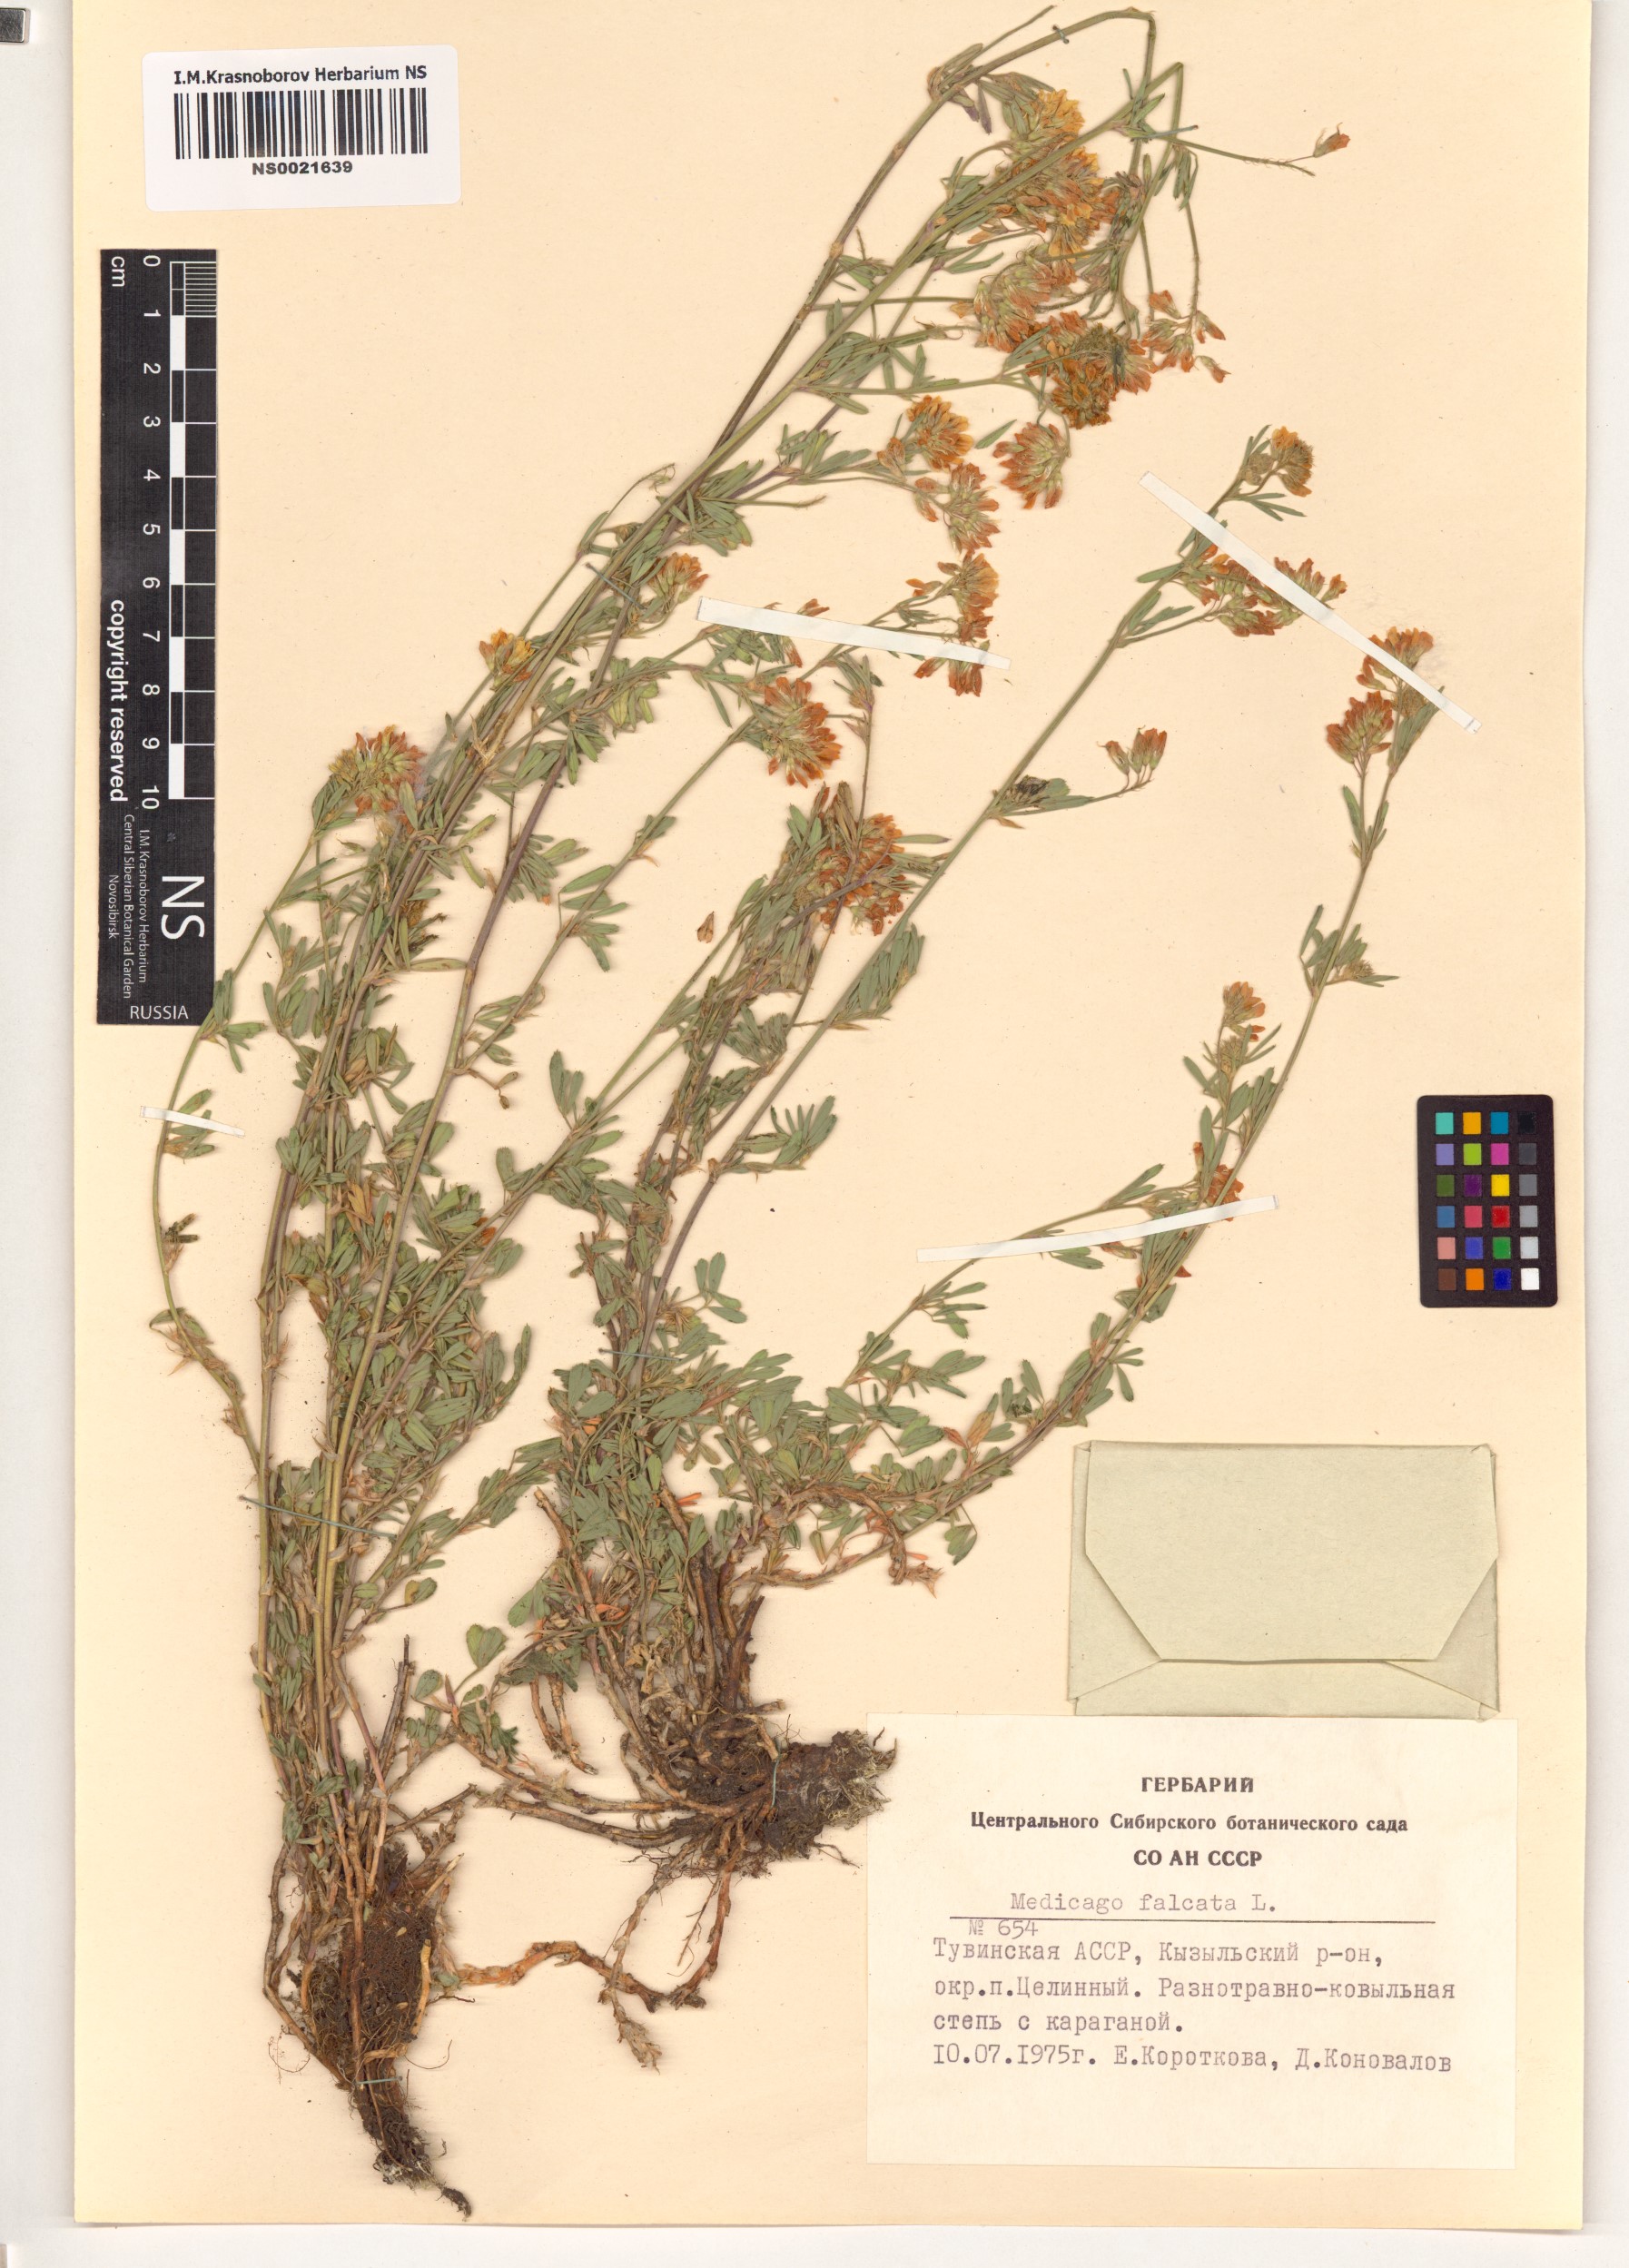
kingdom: Plantae
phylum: Tracheophyta
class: Magnoliopsida
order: Fabales
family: Fabaceae
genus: Medicago
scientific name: Medicago falcata
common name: Sickle medick
